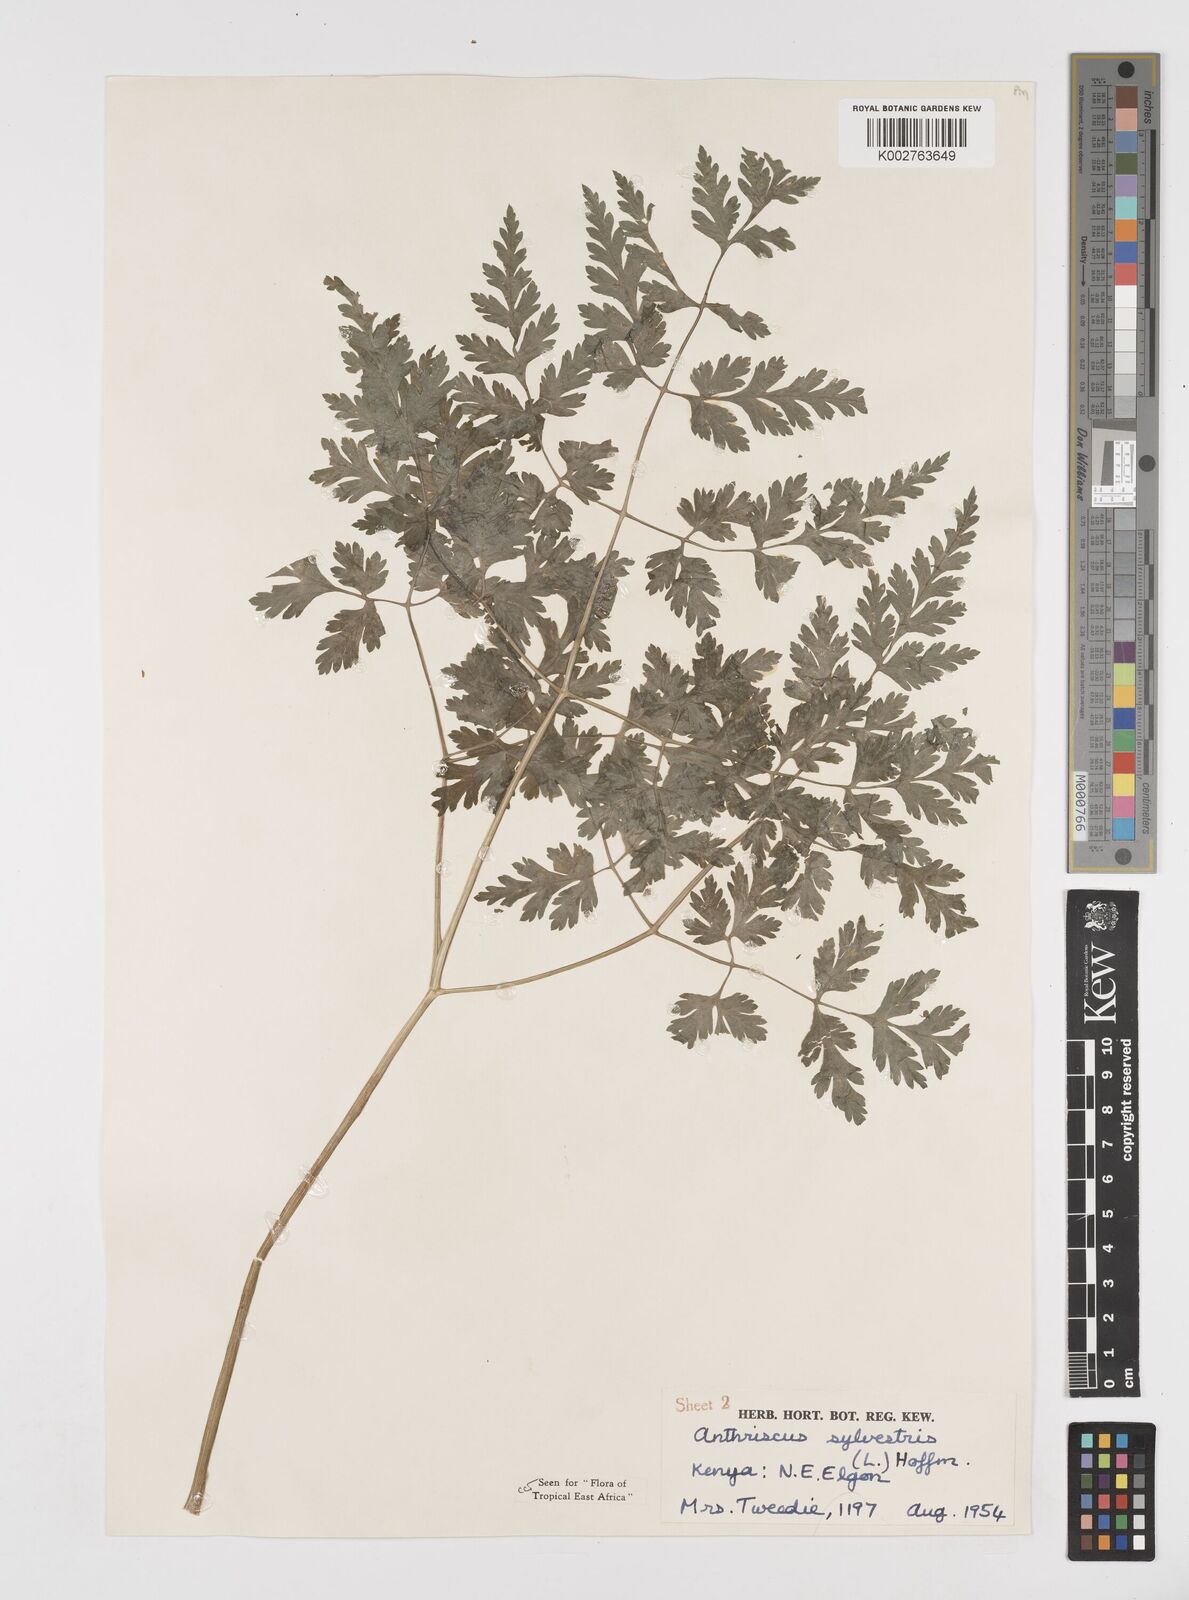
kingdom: Plantae
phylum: Tracheophyta
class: Magnoliopsida
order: Apiales
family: Apiaceae
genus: Anthriscus
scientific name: Anthriscus sylvestris
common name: Cow parsley
